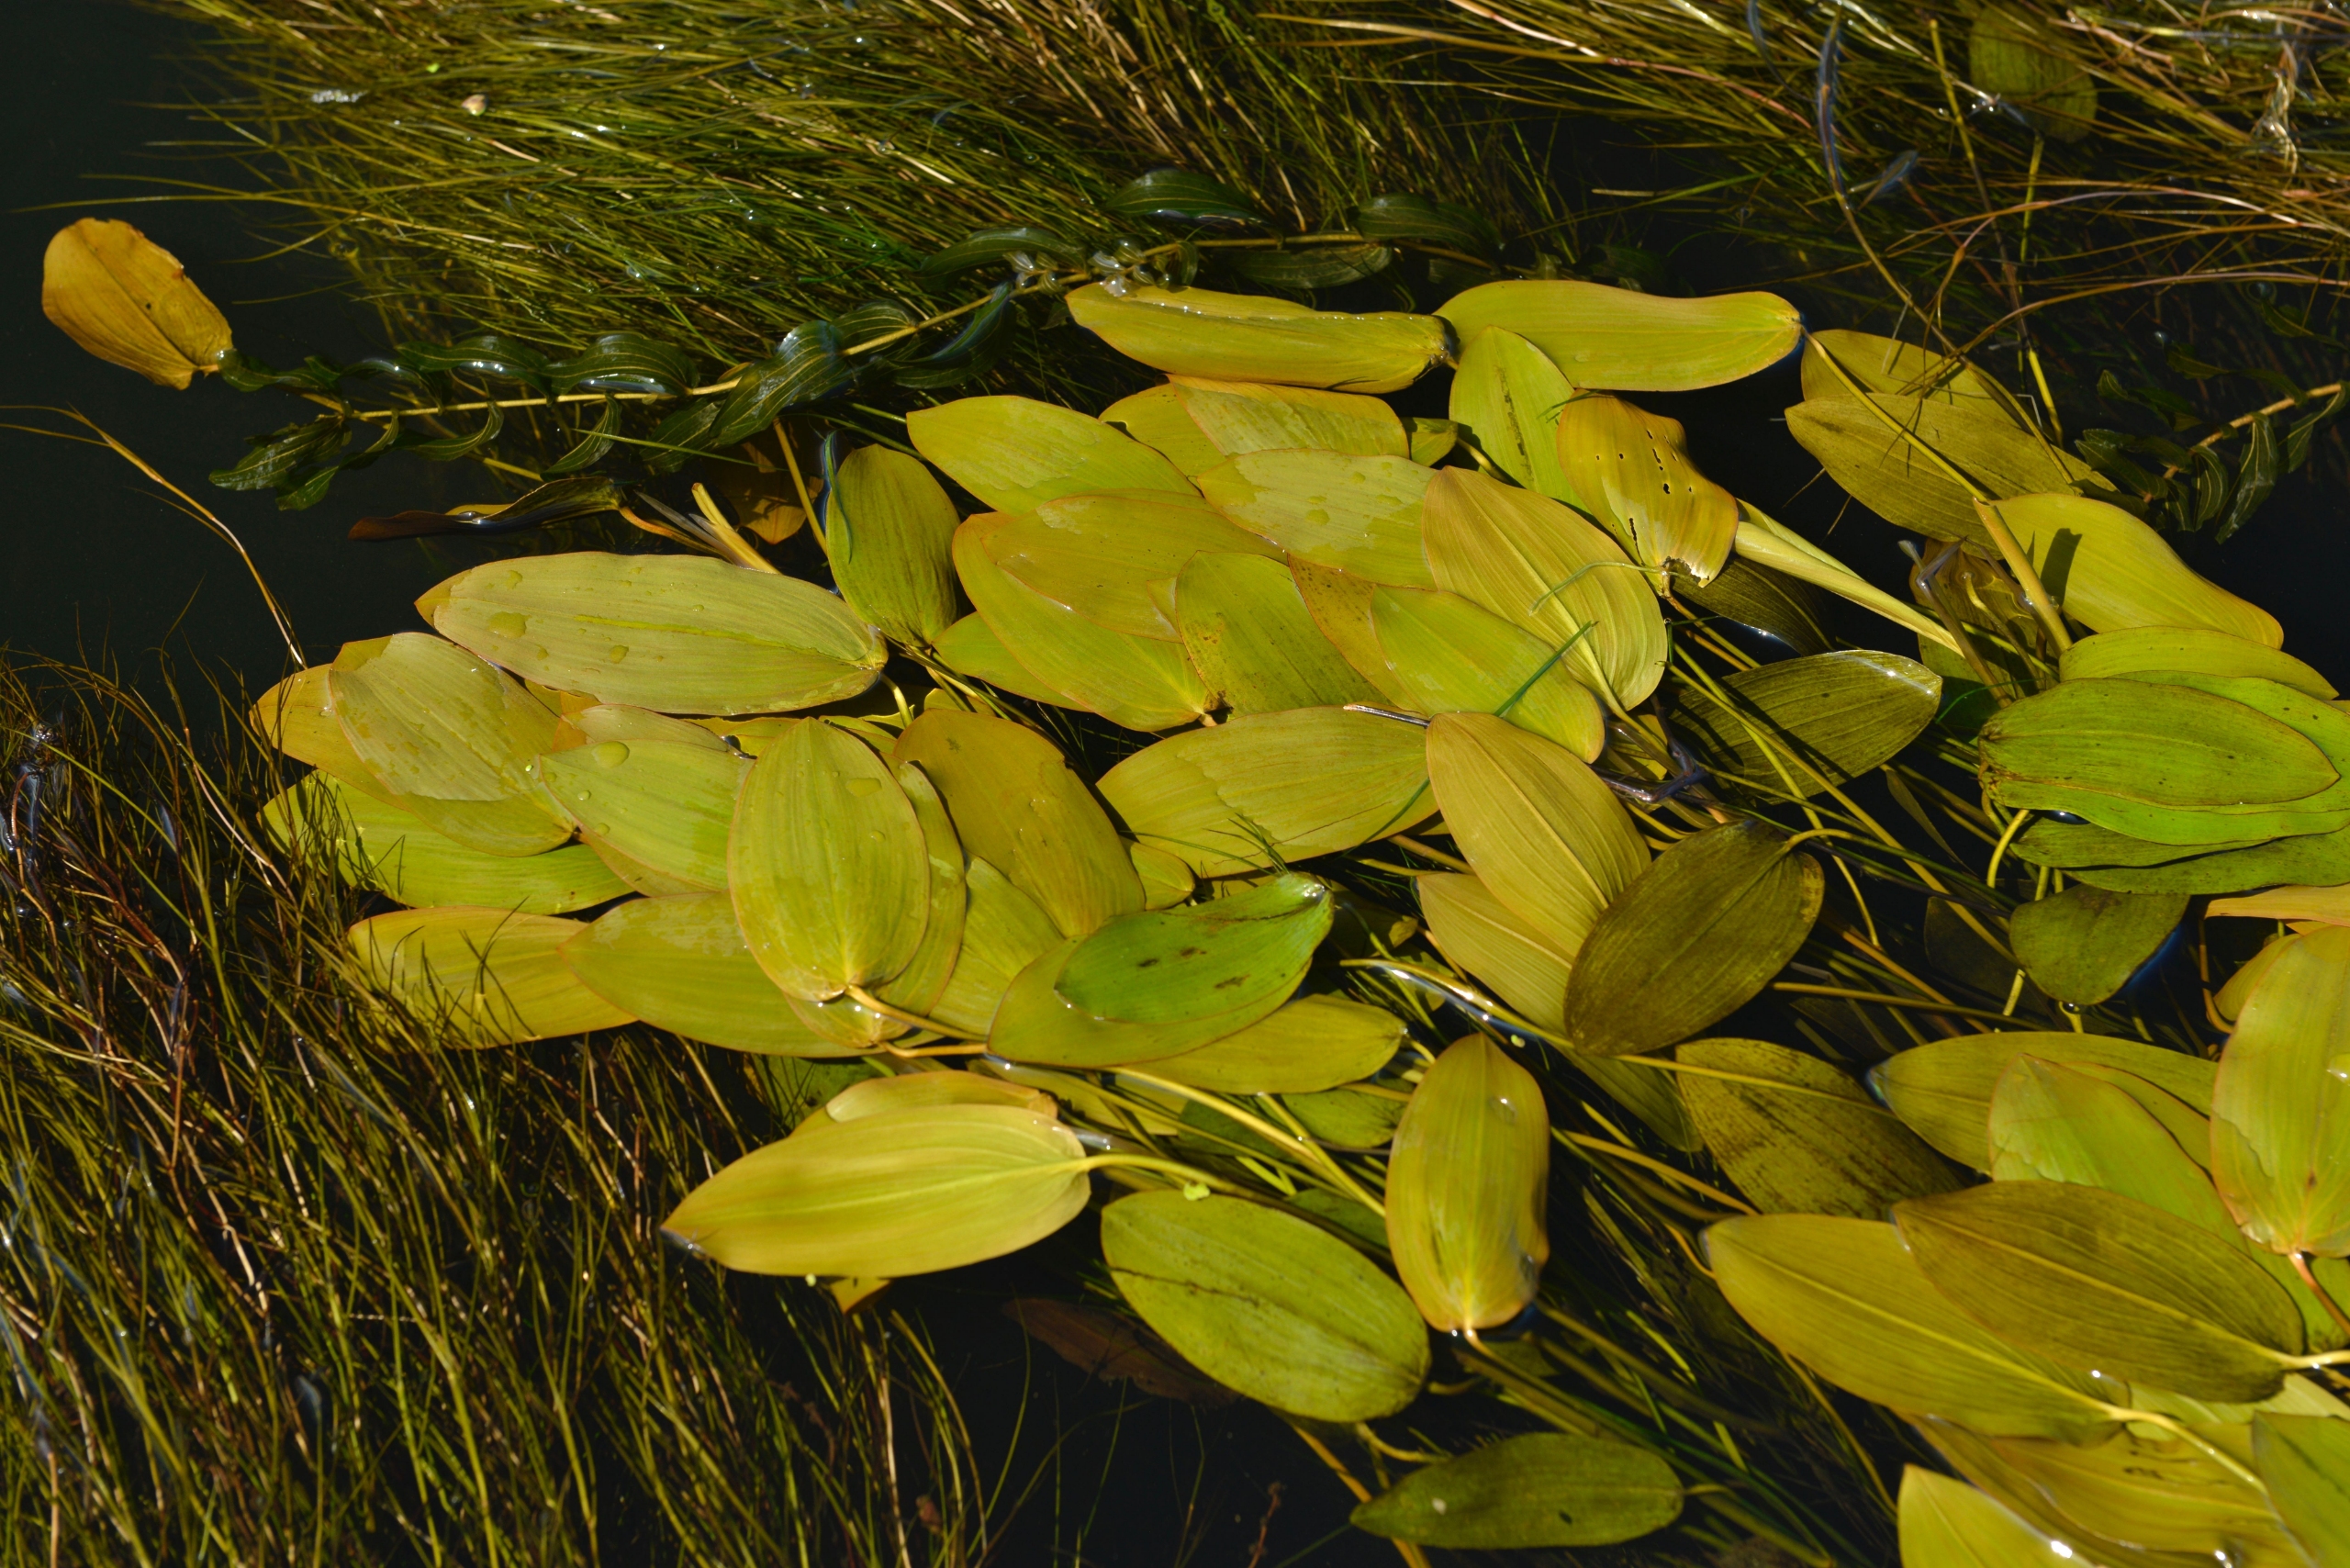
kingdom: Plantae
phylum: Tracheophyta
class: Liliopsida
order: Alismatales
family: Potamogetonaceae
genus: Potamogeton
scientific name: Potamogeton natans
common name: Svømmende vandaks
